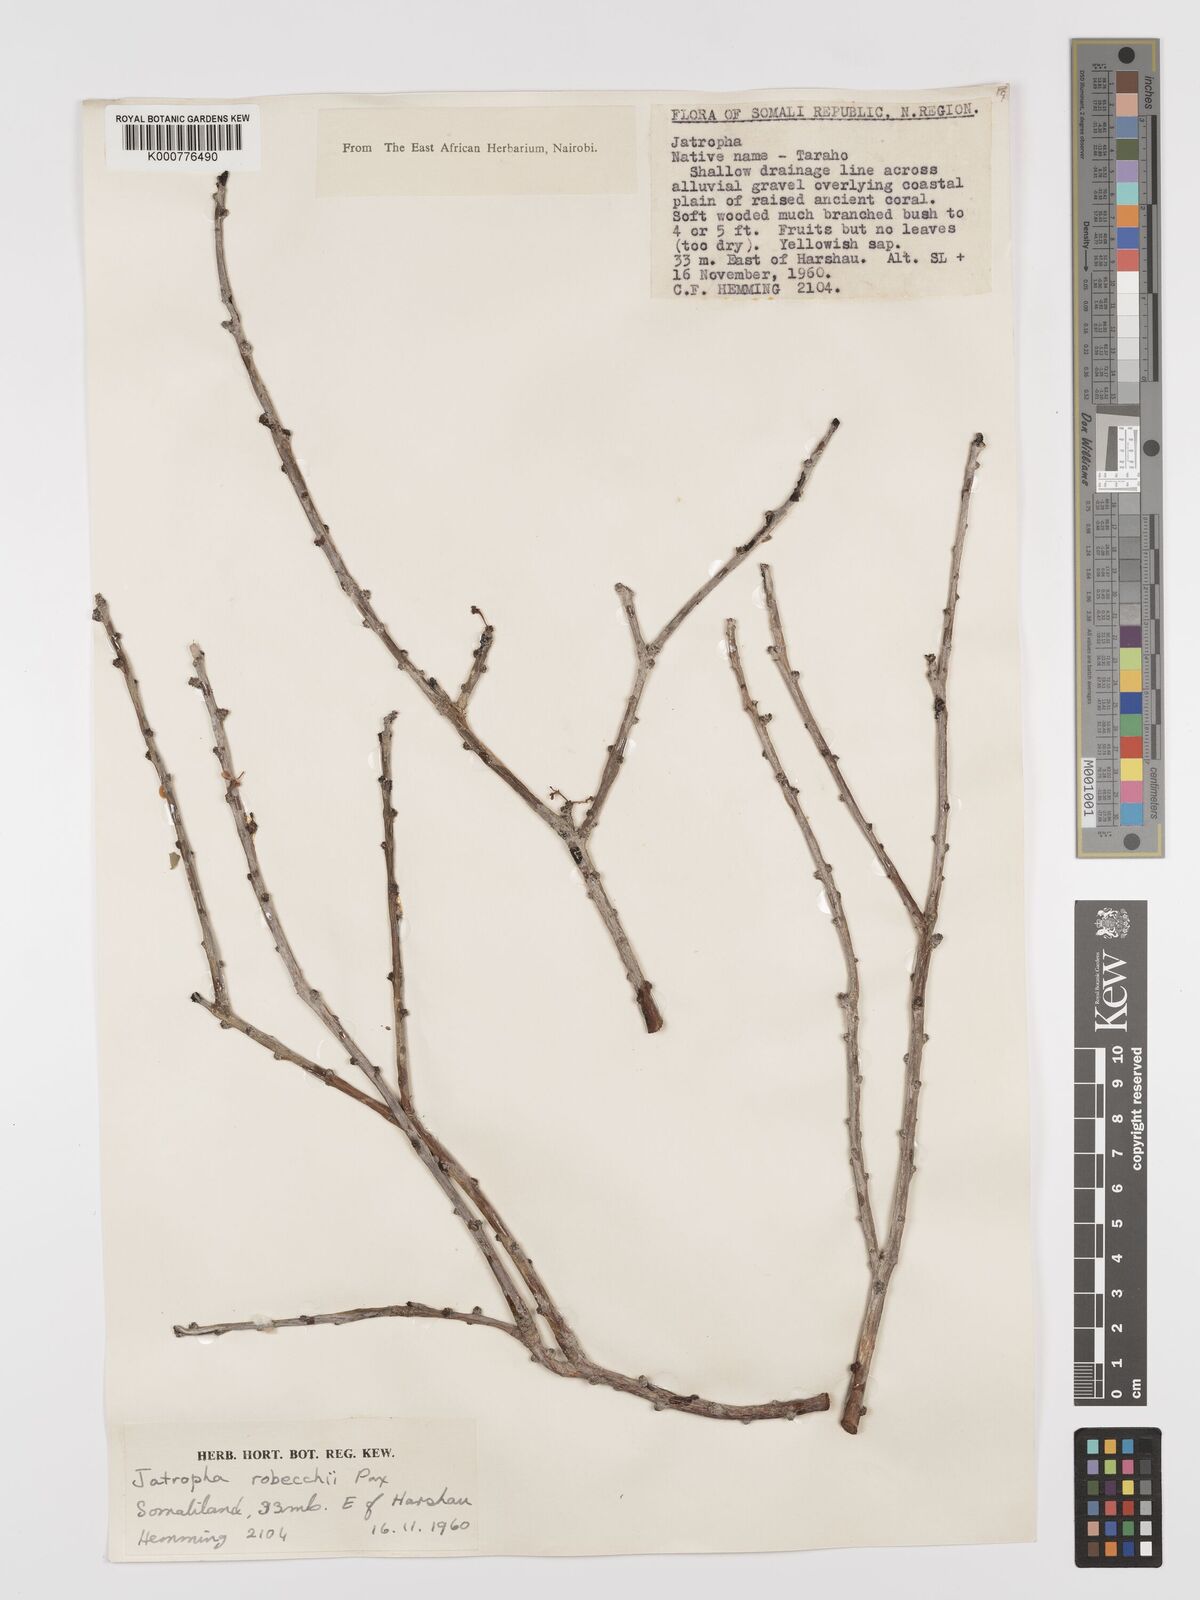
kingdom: Plantae
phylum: Tracheophyta
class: Magnoliopsida
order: Malpighiales
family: Euphorbiaceae
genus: Jatropha
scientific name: Jatropha robecchii
